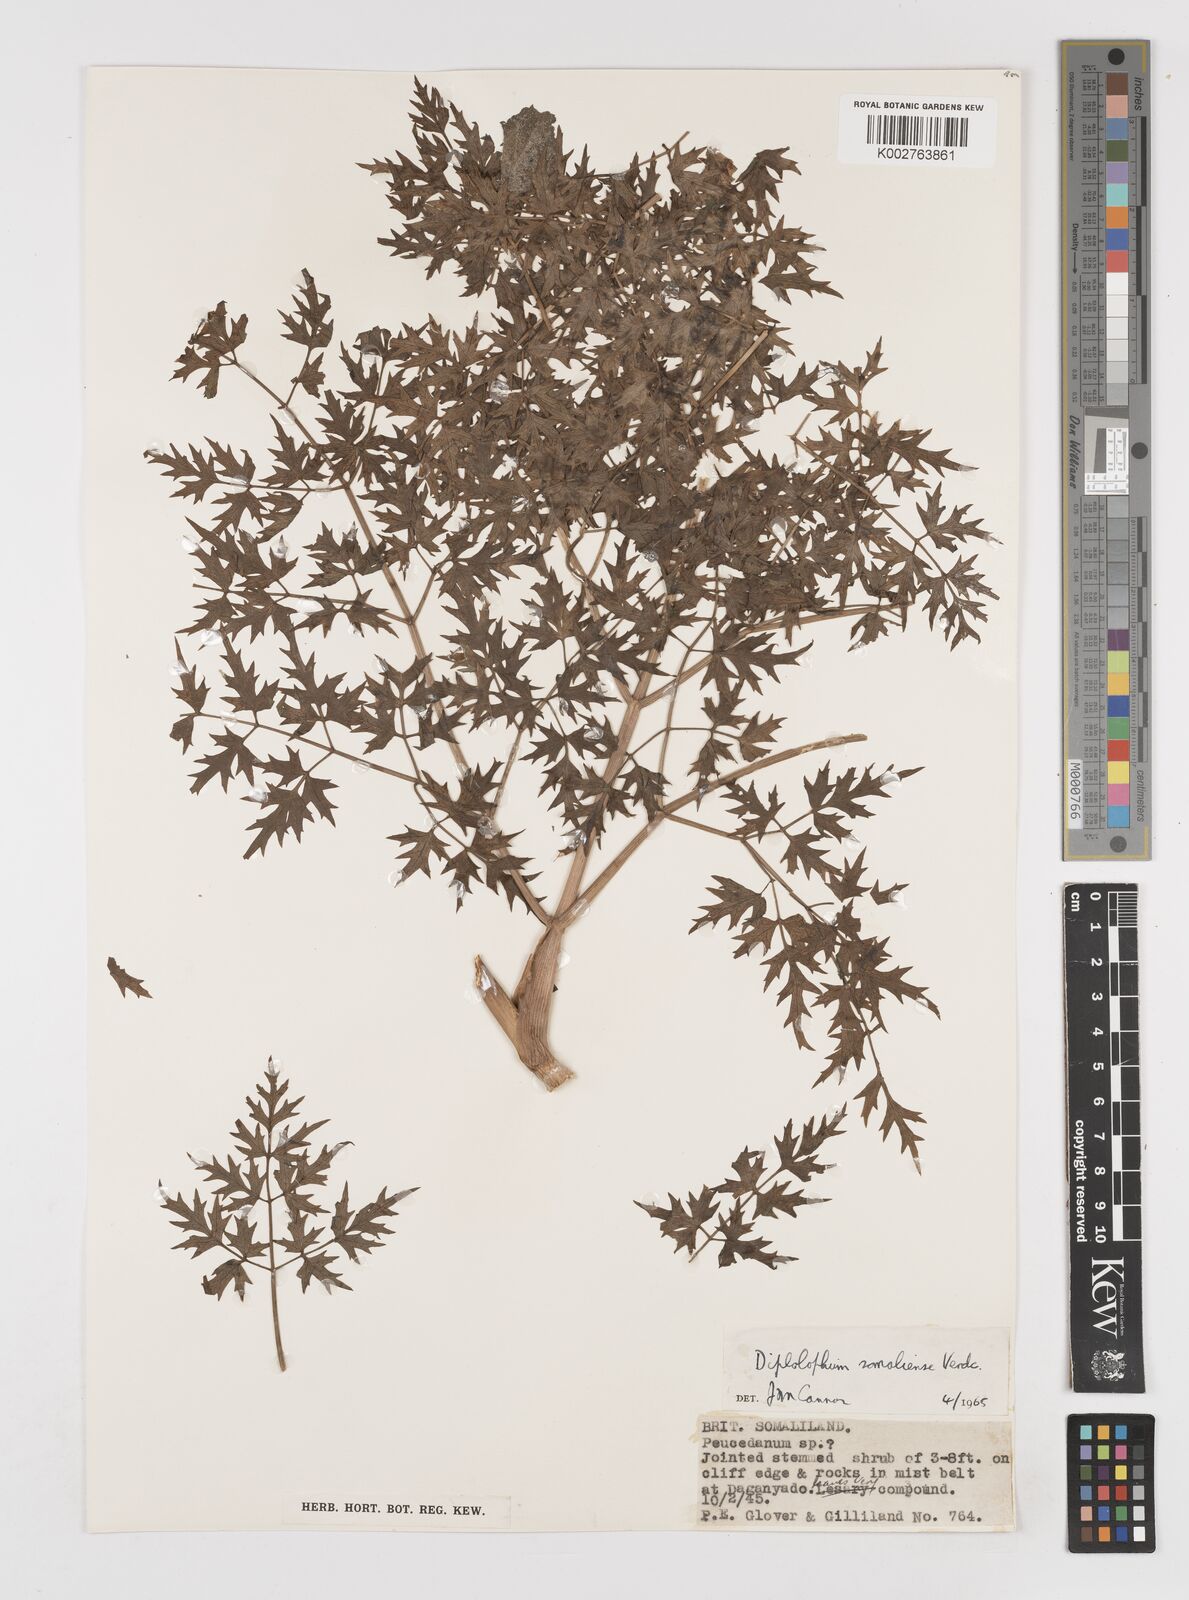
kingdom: Plantae
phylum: Tracheophyta
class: Magnoliopsida
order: Apiales
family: Apiaceae
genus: Diplolophium
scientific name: Diplolophium somaliense
